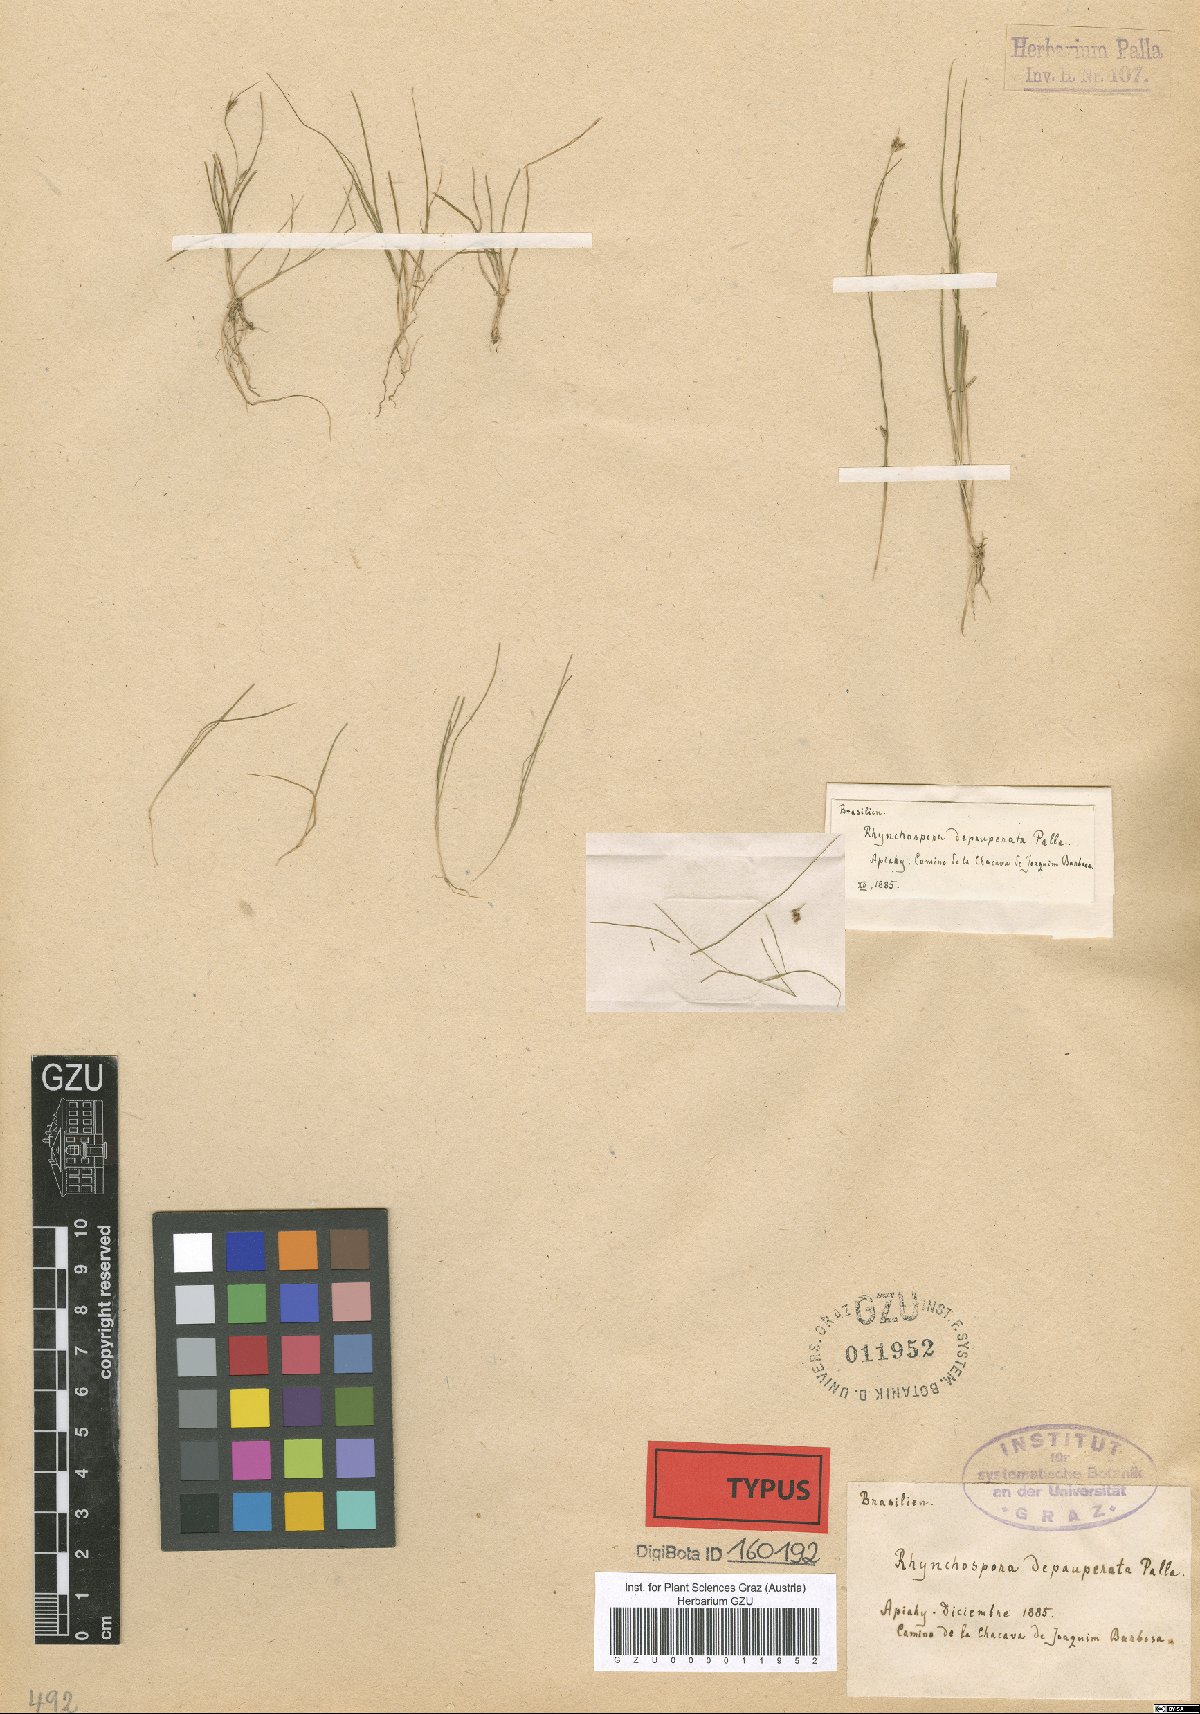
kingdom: Plantae
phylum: Tracheophyta
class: Liliopsida
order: Poales
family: Cyperaceae
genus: Rhynchospora
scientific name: Rhynchospora depauperata
